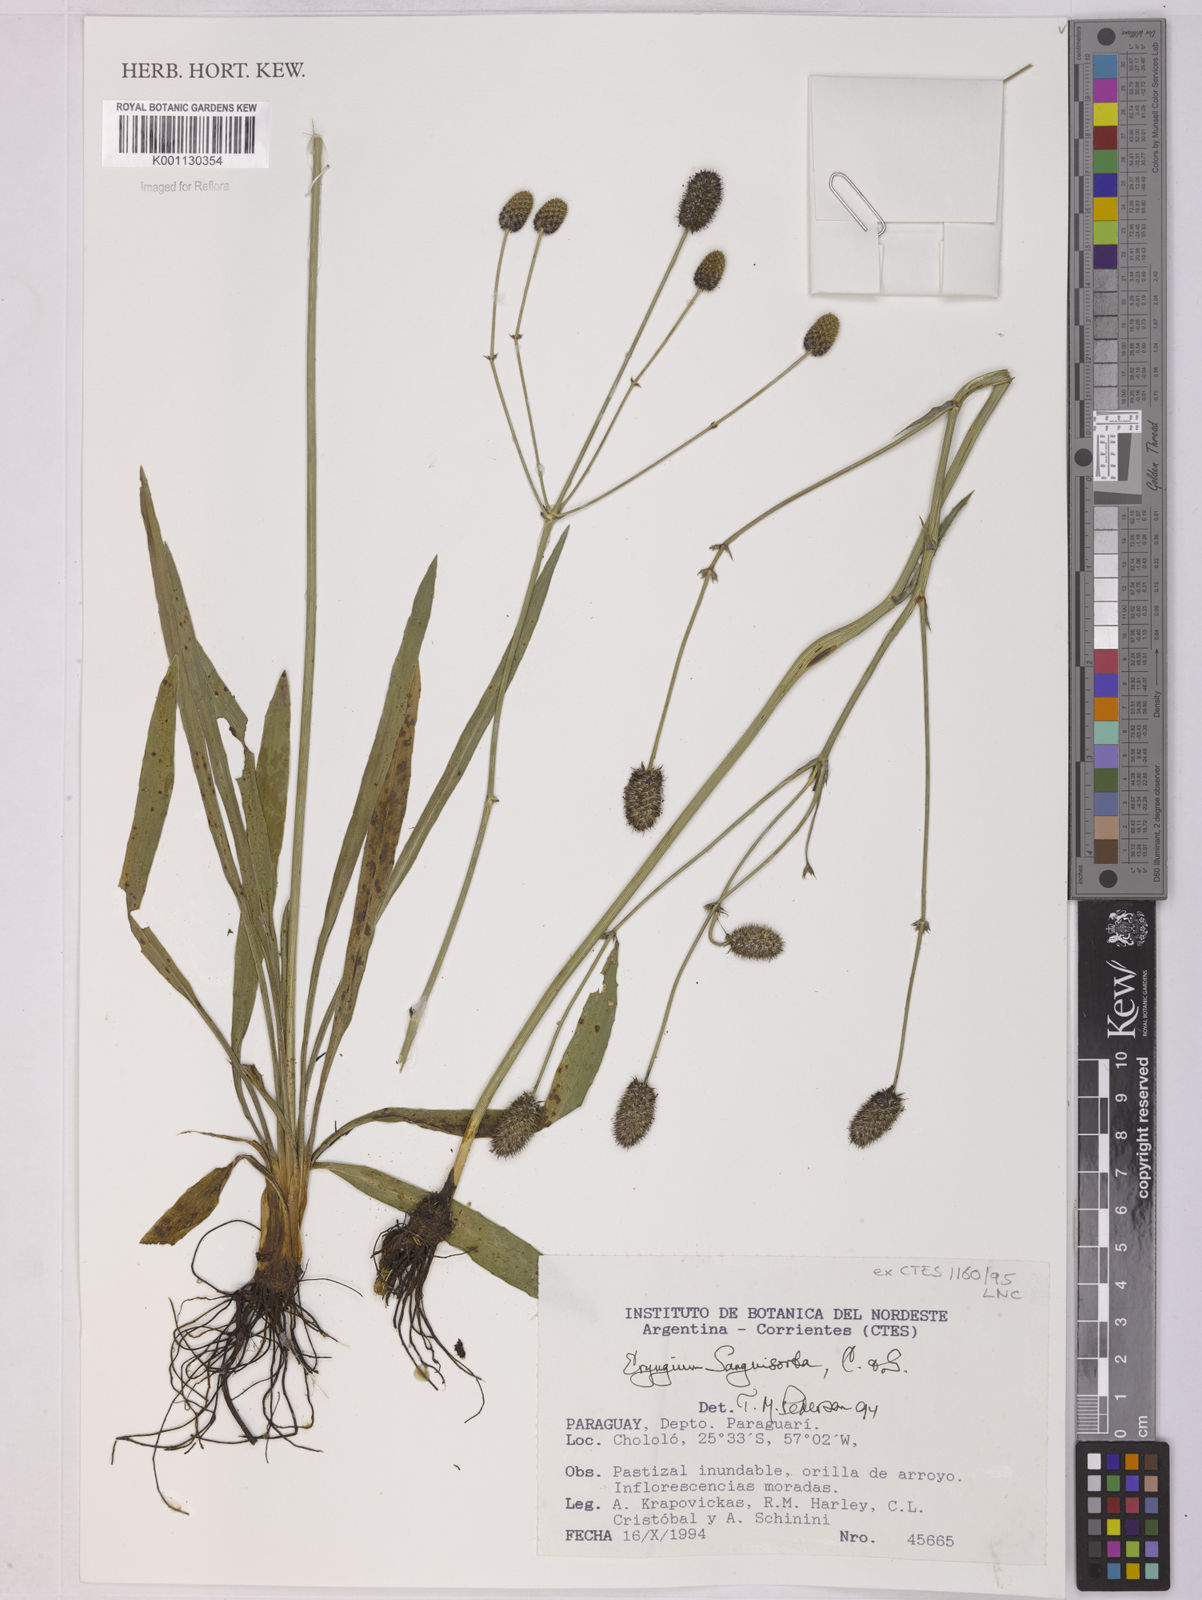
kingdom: Plantae
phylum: Tracheophyta
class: Magnoliopsida
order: Apiales
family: Apiaceae
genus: Eryngium
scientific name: Eryngium sanguisorba
